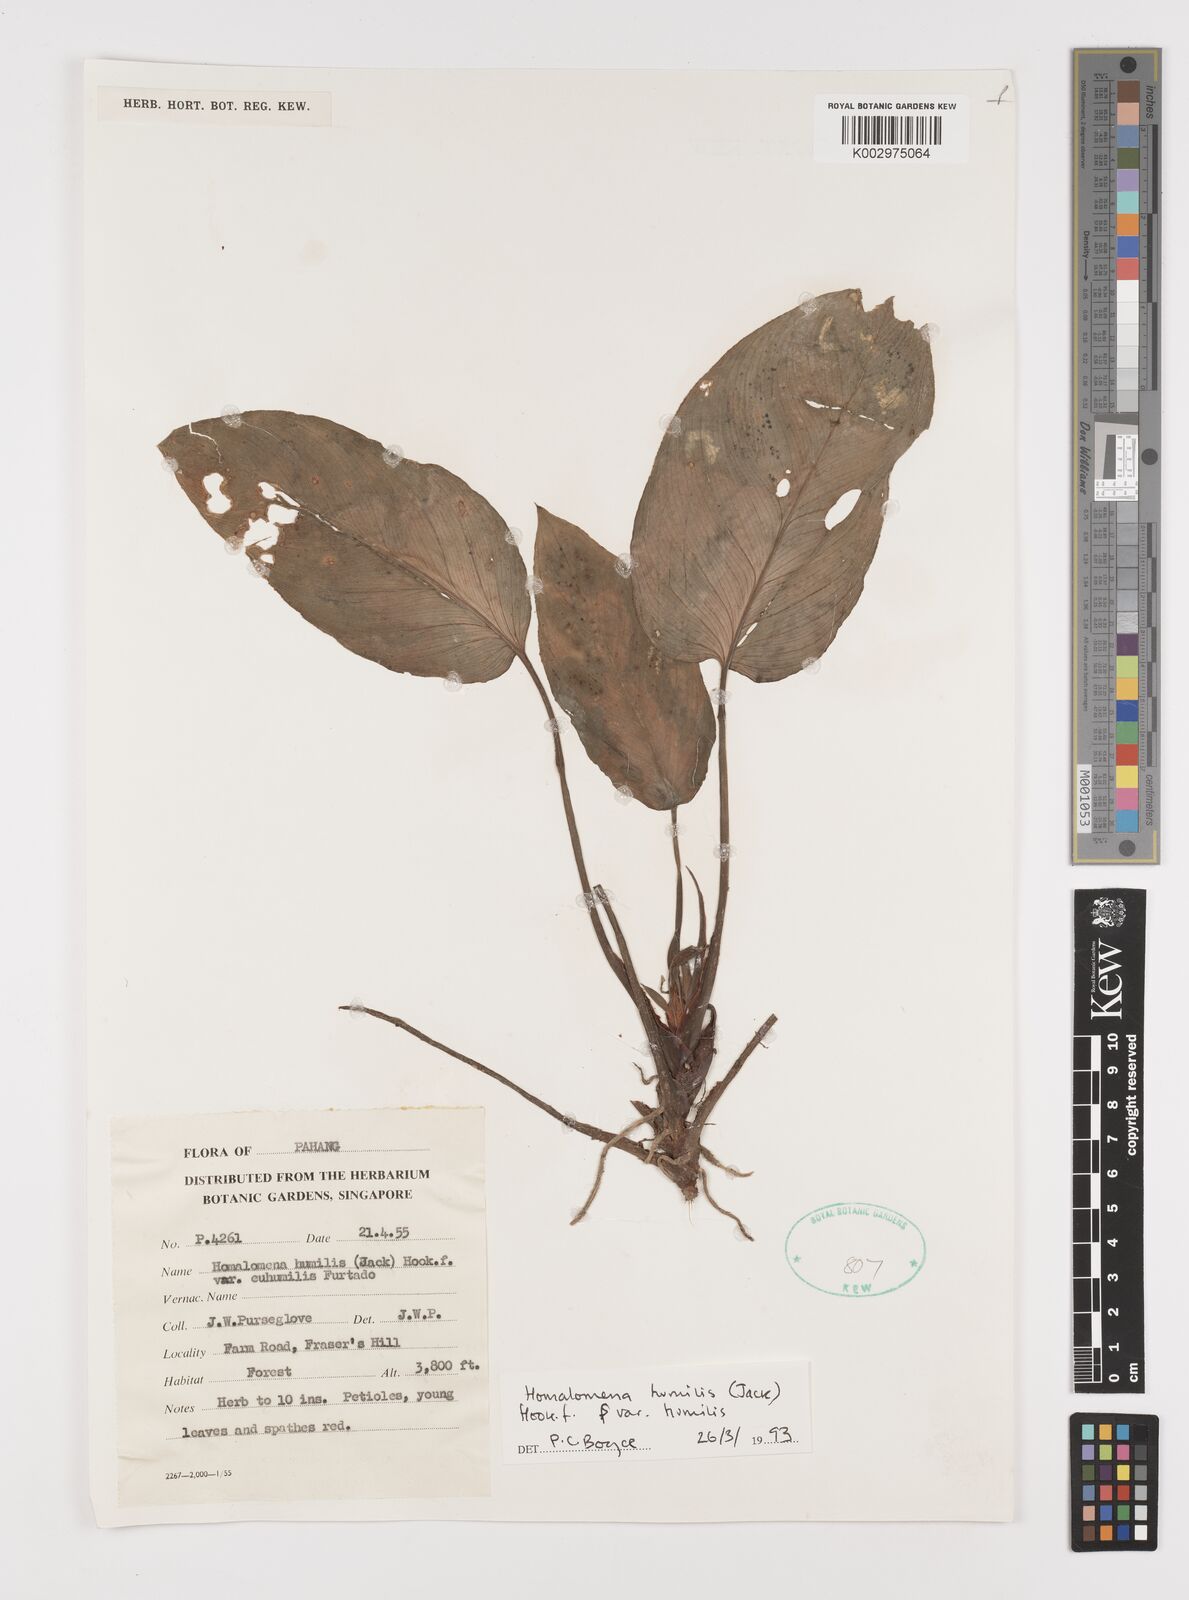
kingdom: Plantae
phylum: Tracheophyta
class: Liliopsida
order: Alismatales
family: Araceae
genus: Homalomena
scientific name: Homalomena humilis
